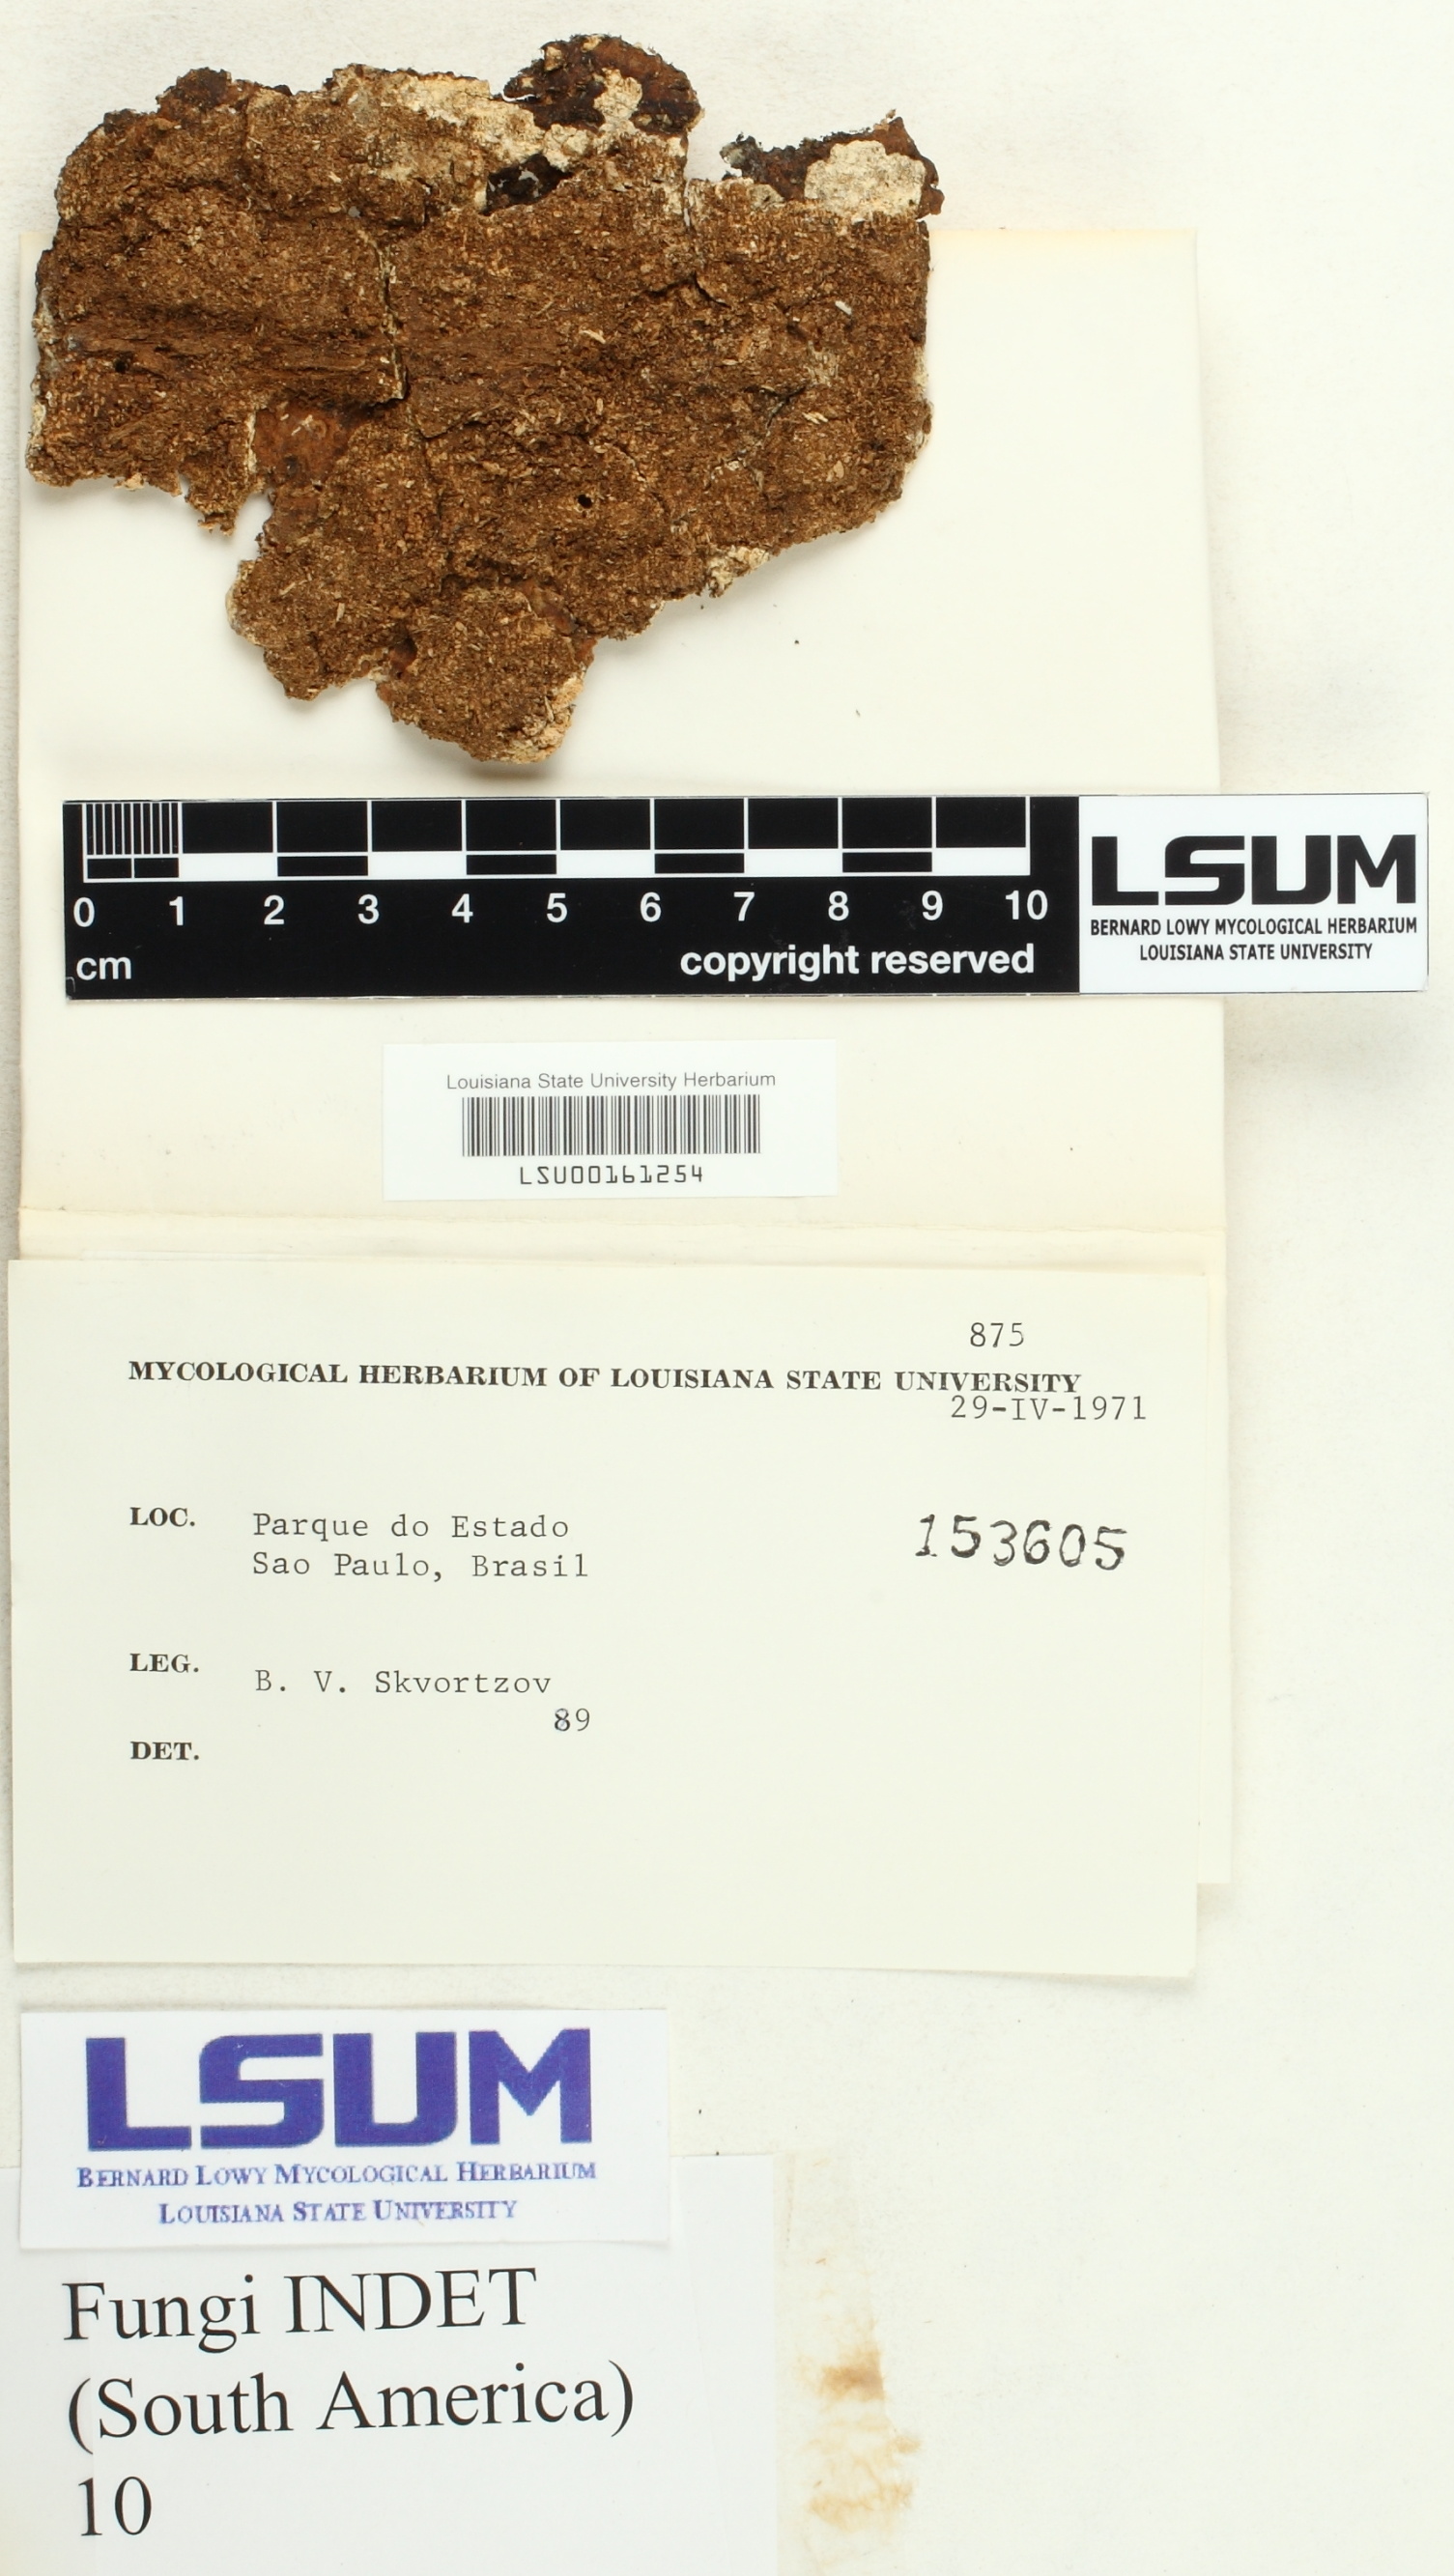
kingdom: Fungi
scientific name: Fungi
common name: Fungi
